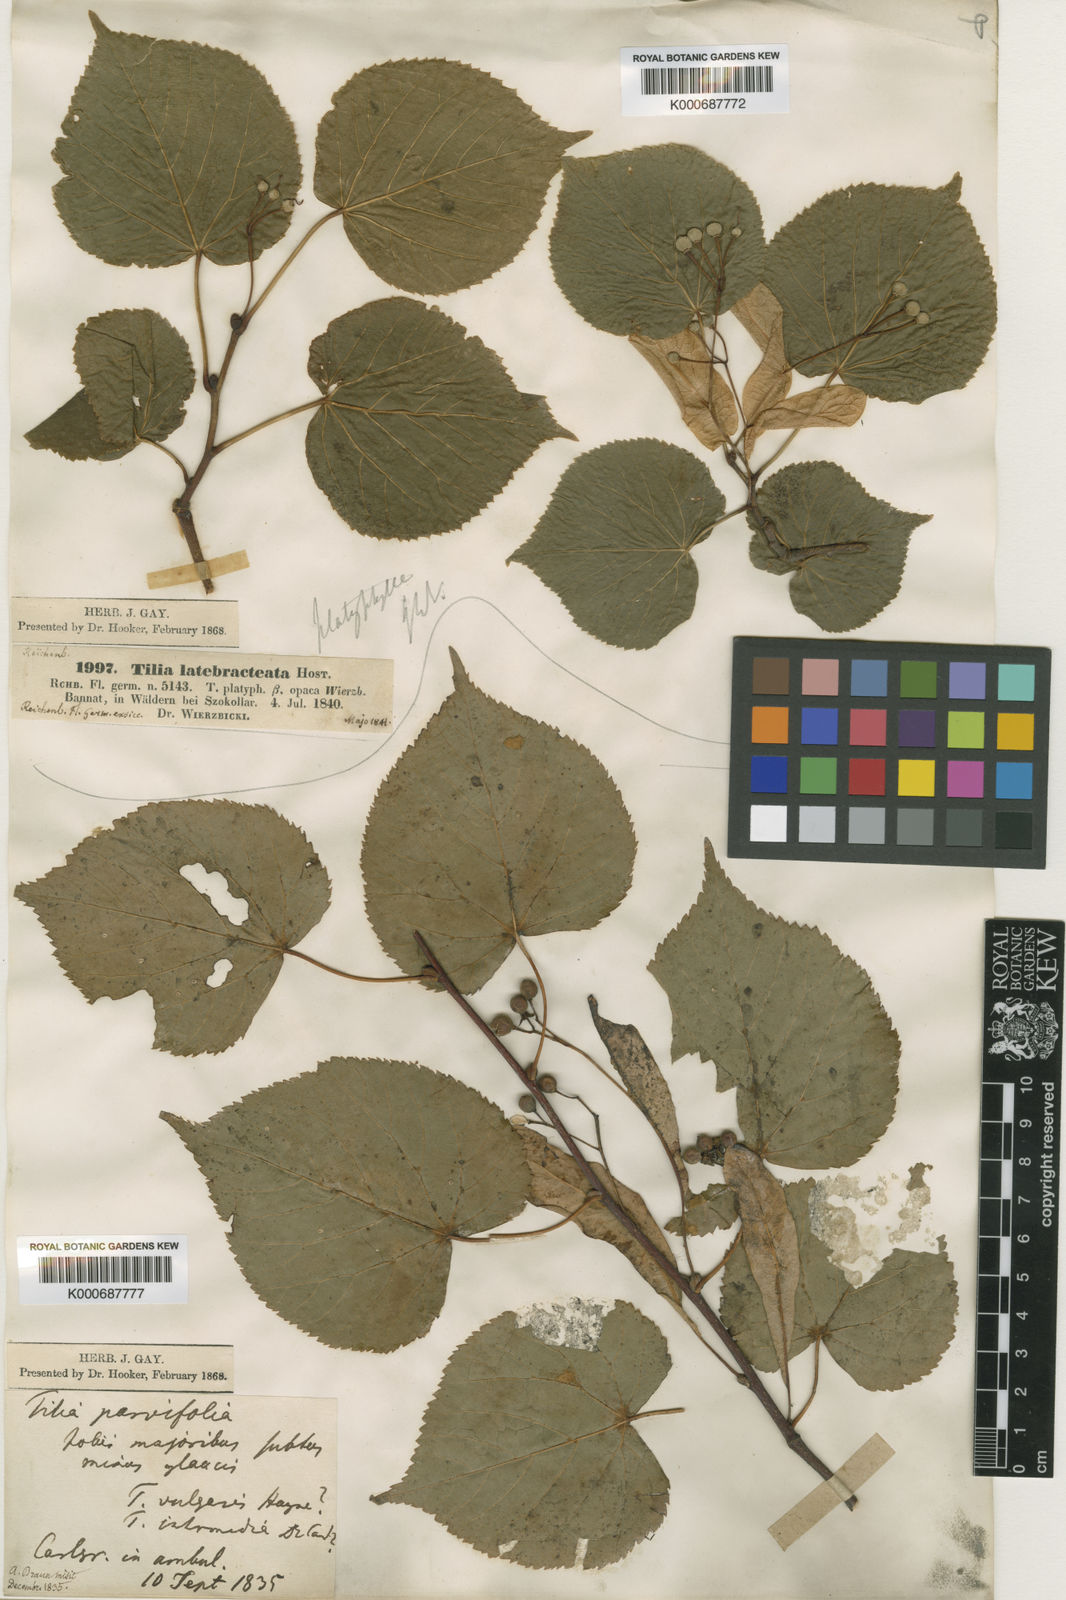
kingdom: Plantae
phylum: Tracheophyta
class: Magnoliopsida
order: Malvales
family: Malvaceae
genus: Tilia
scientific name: Tilia platyphyllos
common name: Large-leaved lime
